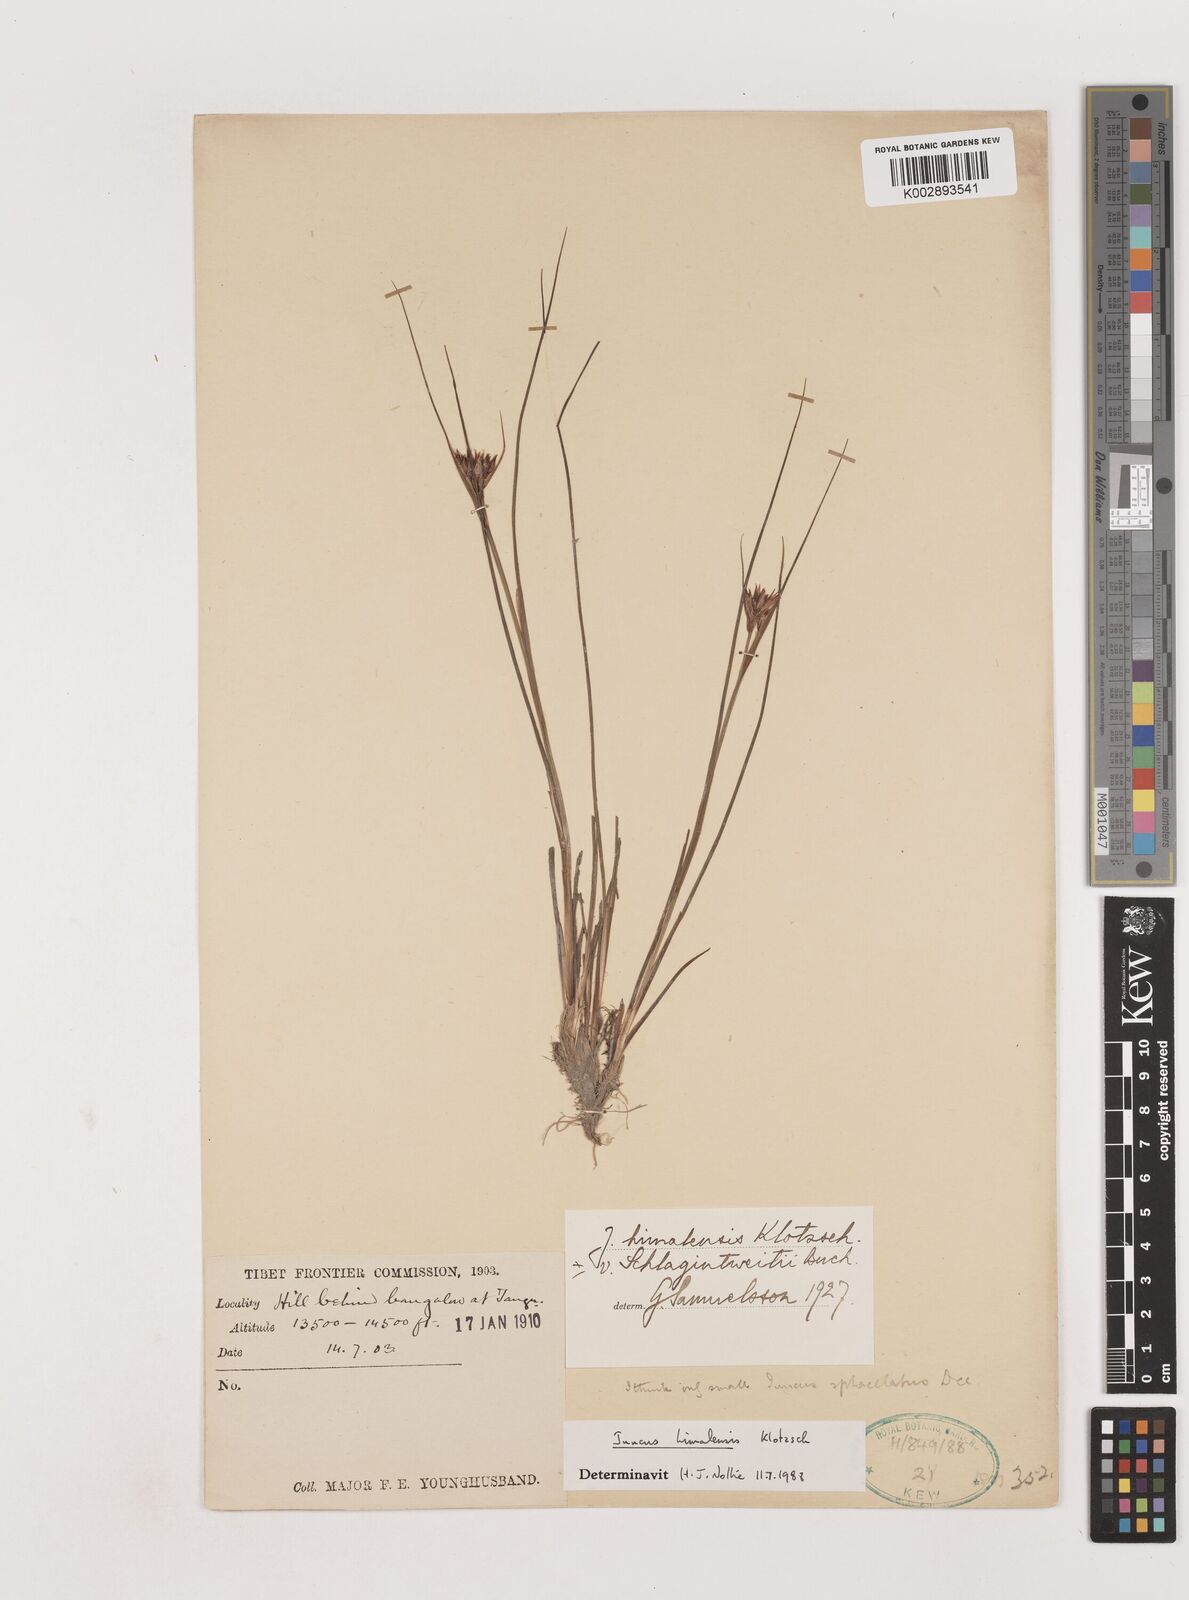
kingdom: Plantae
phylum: Tracheophyta
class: Liliopsida
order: Poales
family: Juncaceae
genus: Juncus
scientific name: Juncus himalensis
